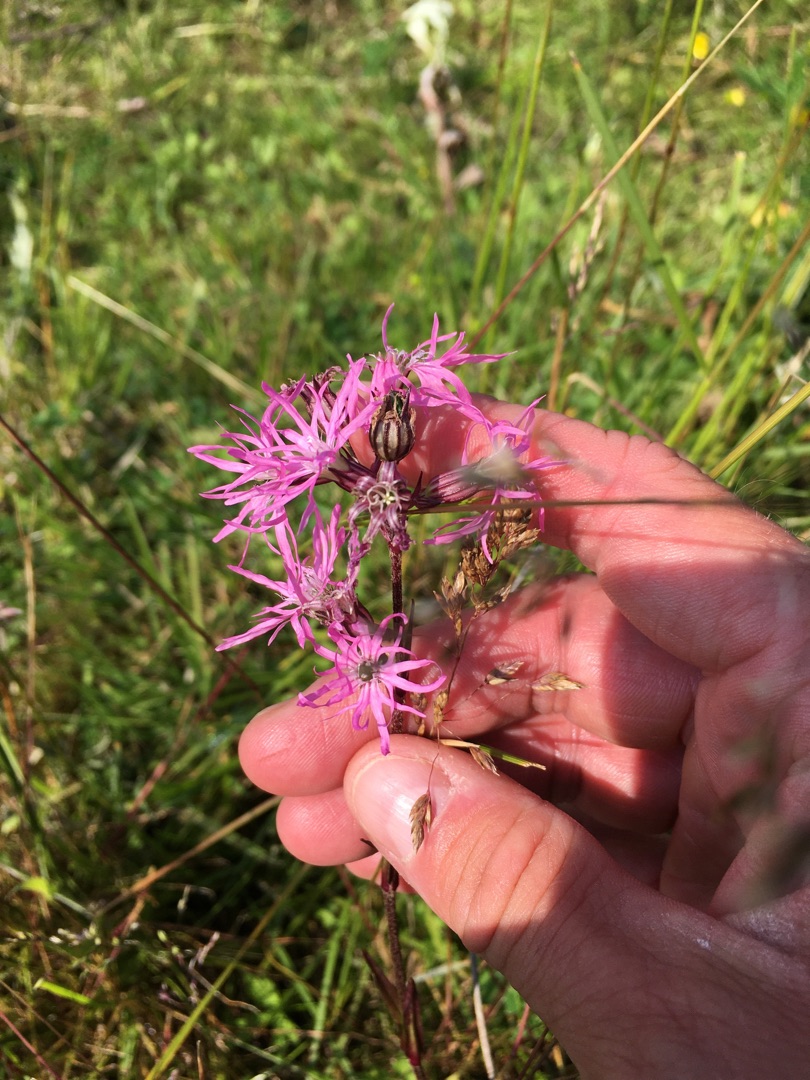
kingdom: Plantae
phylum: Tracheophyta
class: Magnoliopsida
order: Caryophyllales
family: Caryophyllaceae
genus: Silene
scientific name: Silene flos-cuculi
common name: Trævlekrone
